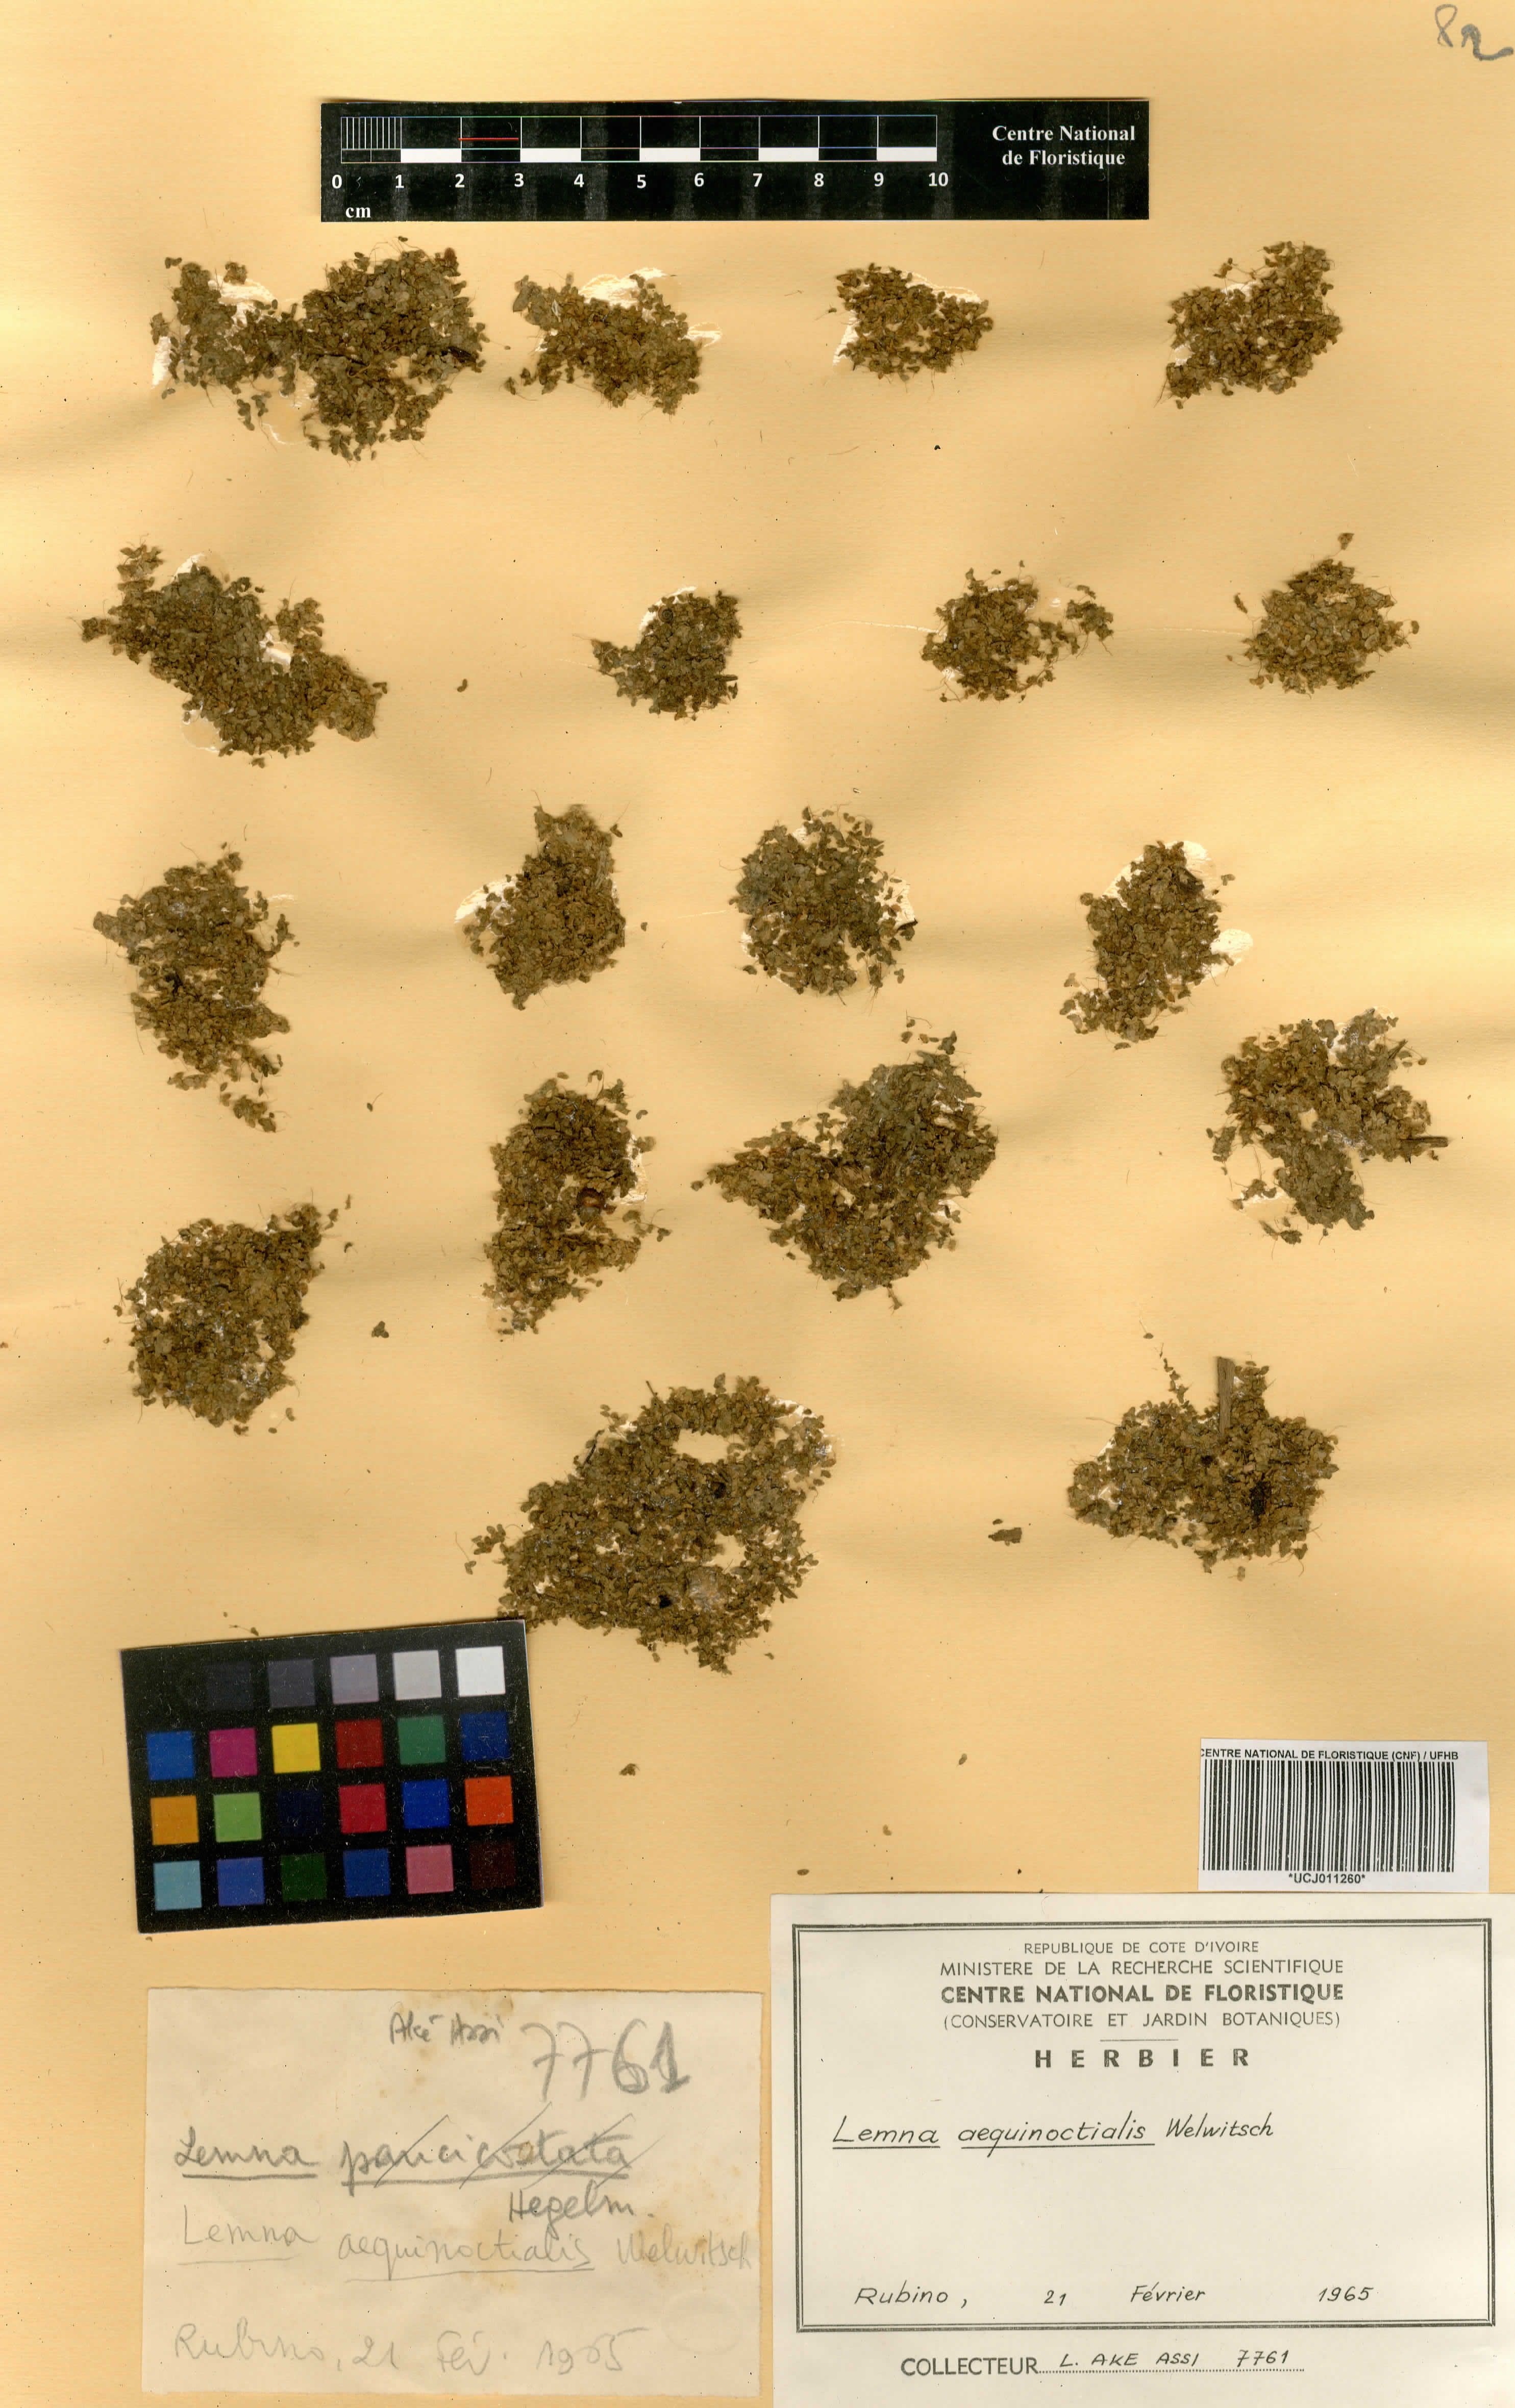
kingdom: Plantae
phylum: Tracheophyta
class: Liliopsida
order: Alismatales
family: Araceae
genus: Lemna
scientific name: Lemna aequinoctialis
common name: Duckweed
